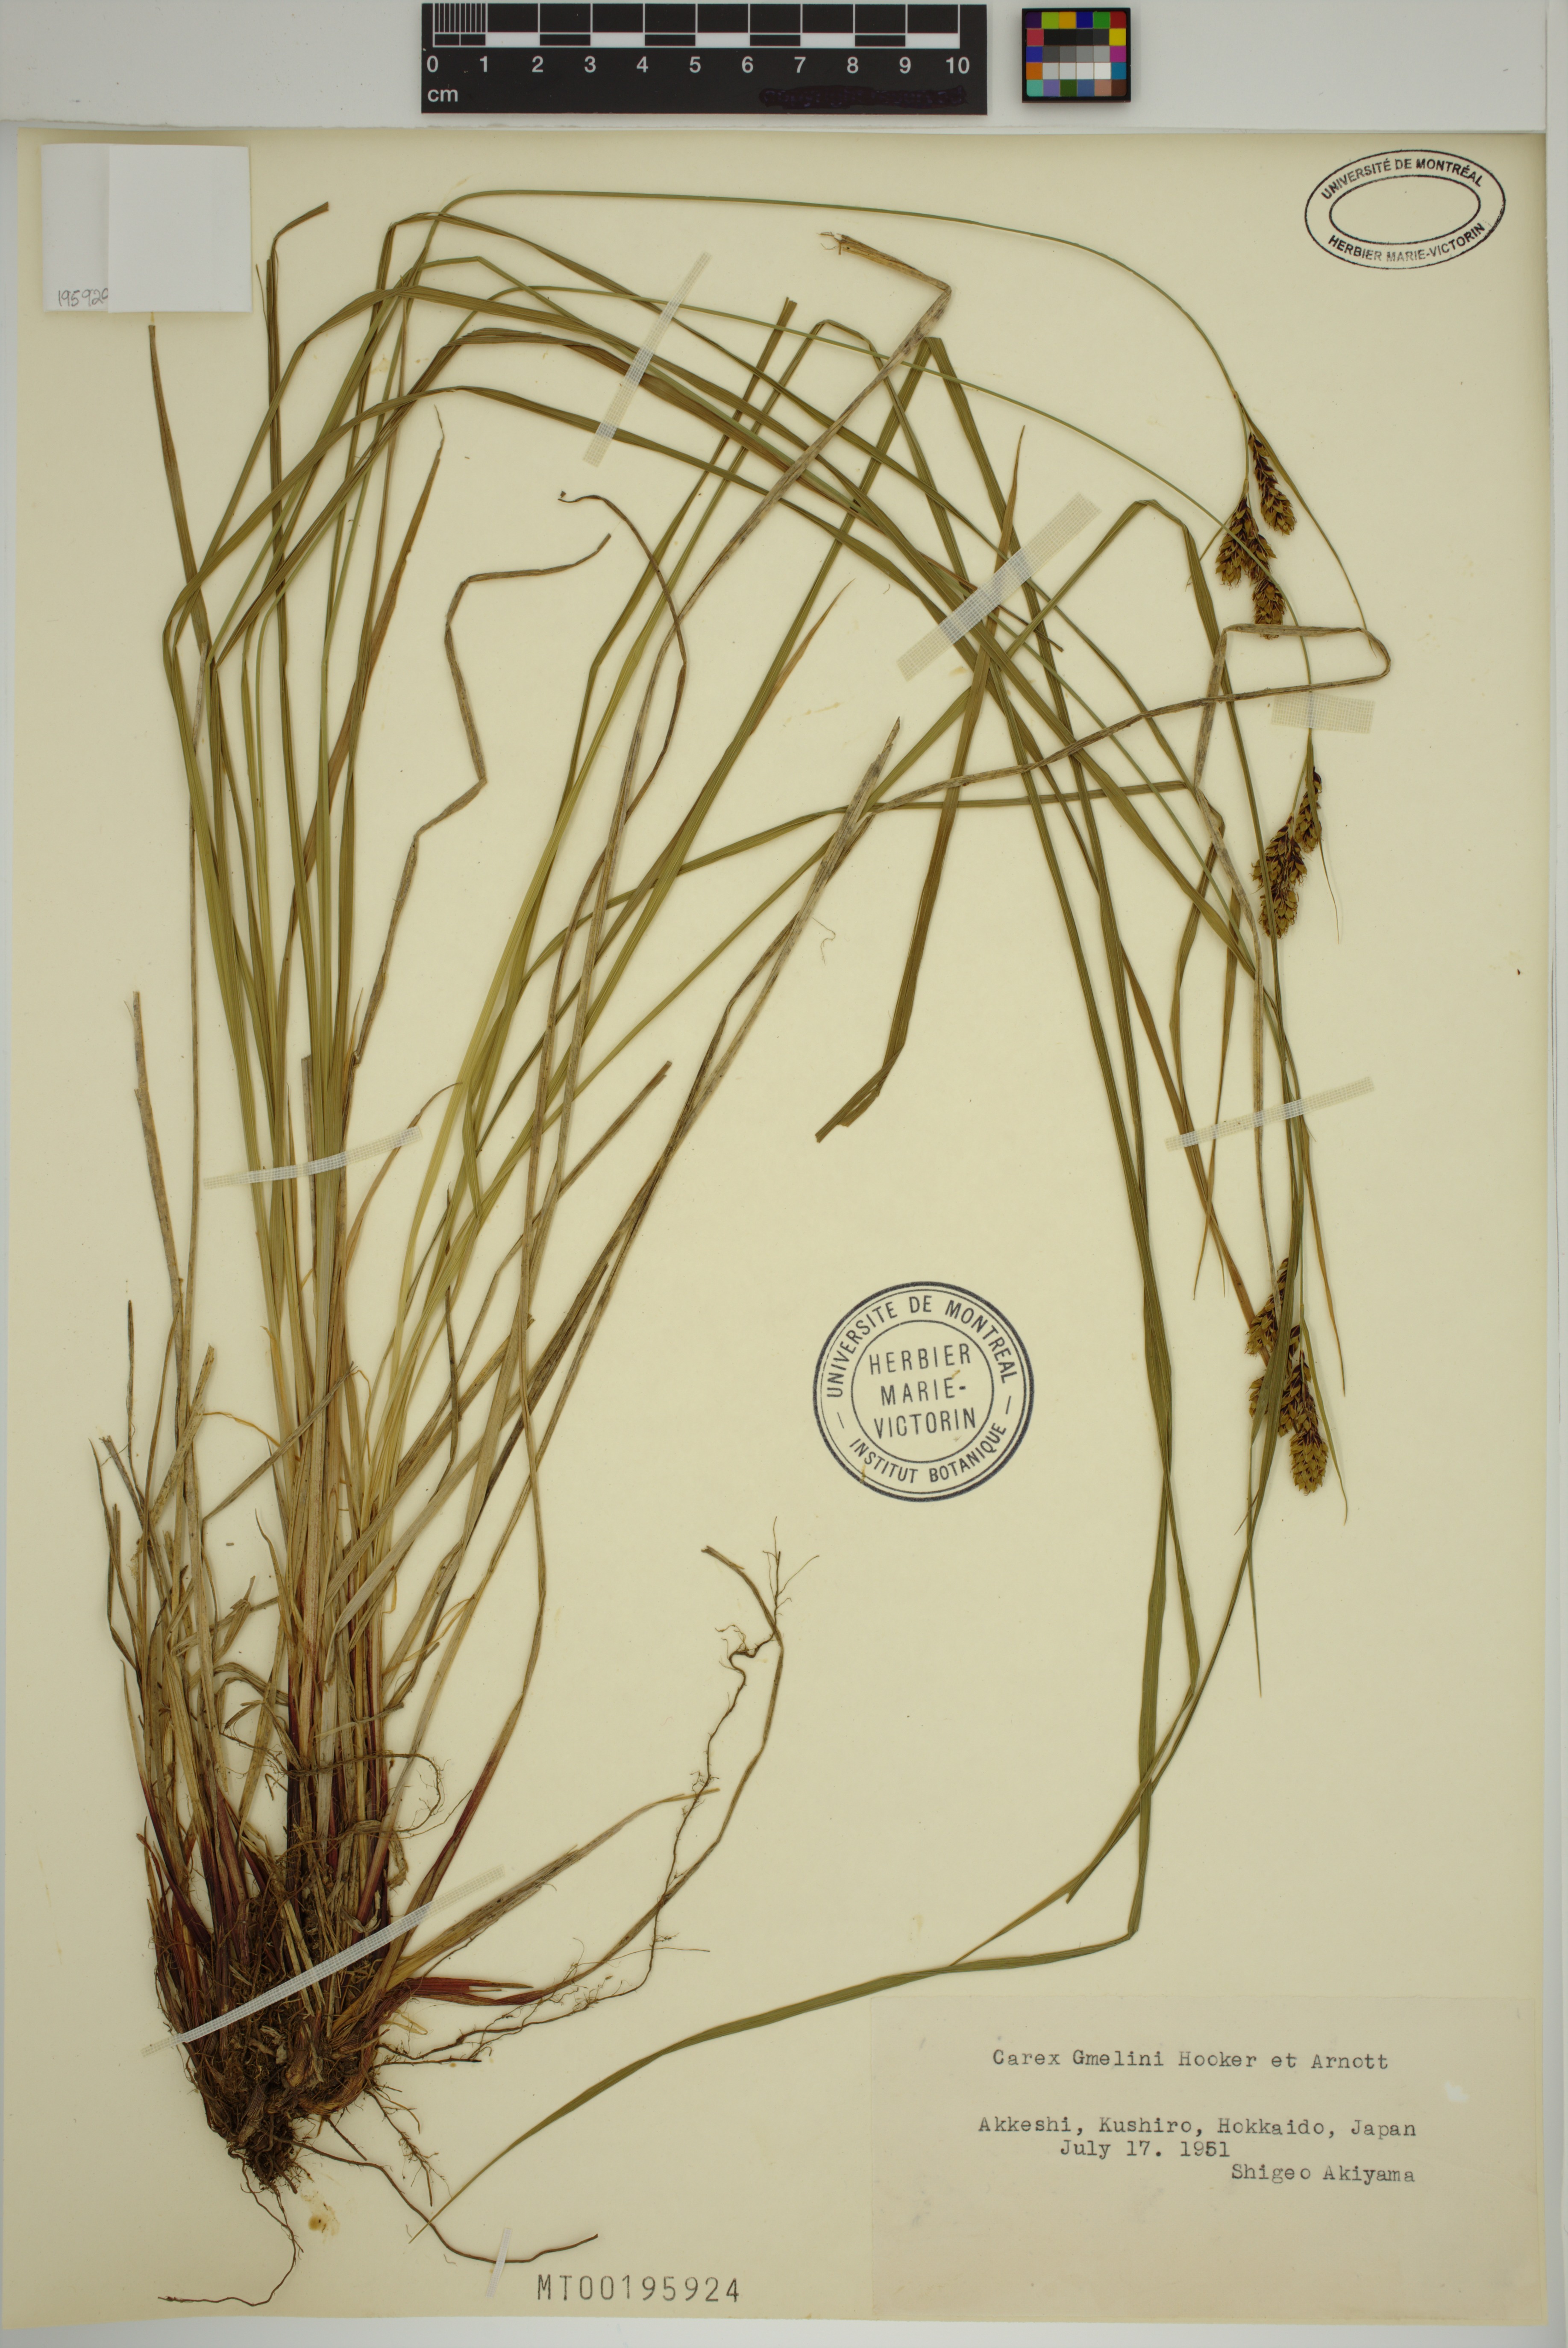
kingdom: Plantae
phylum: Tracheophyta
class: Liliopsida
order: Poales
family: Cyperaceae
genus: Carex
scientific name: Carex gmelinii
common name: Gmelin's sedge
